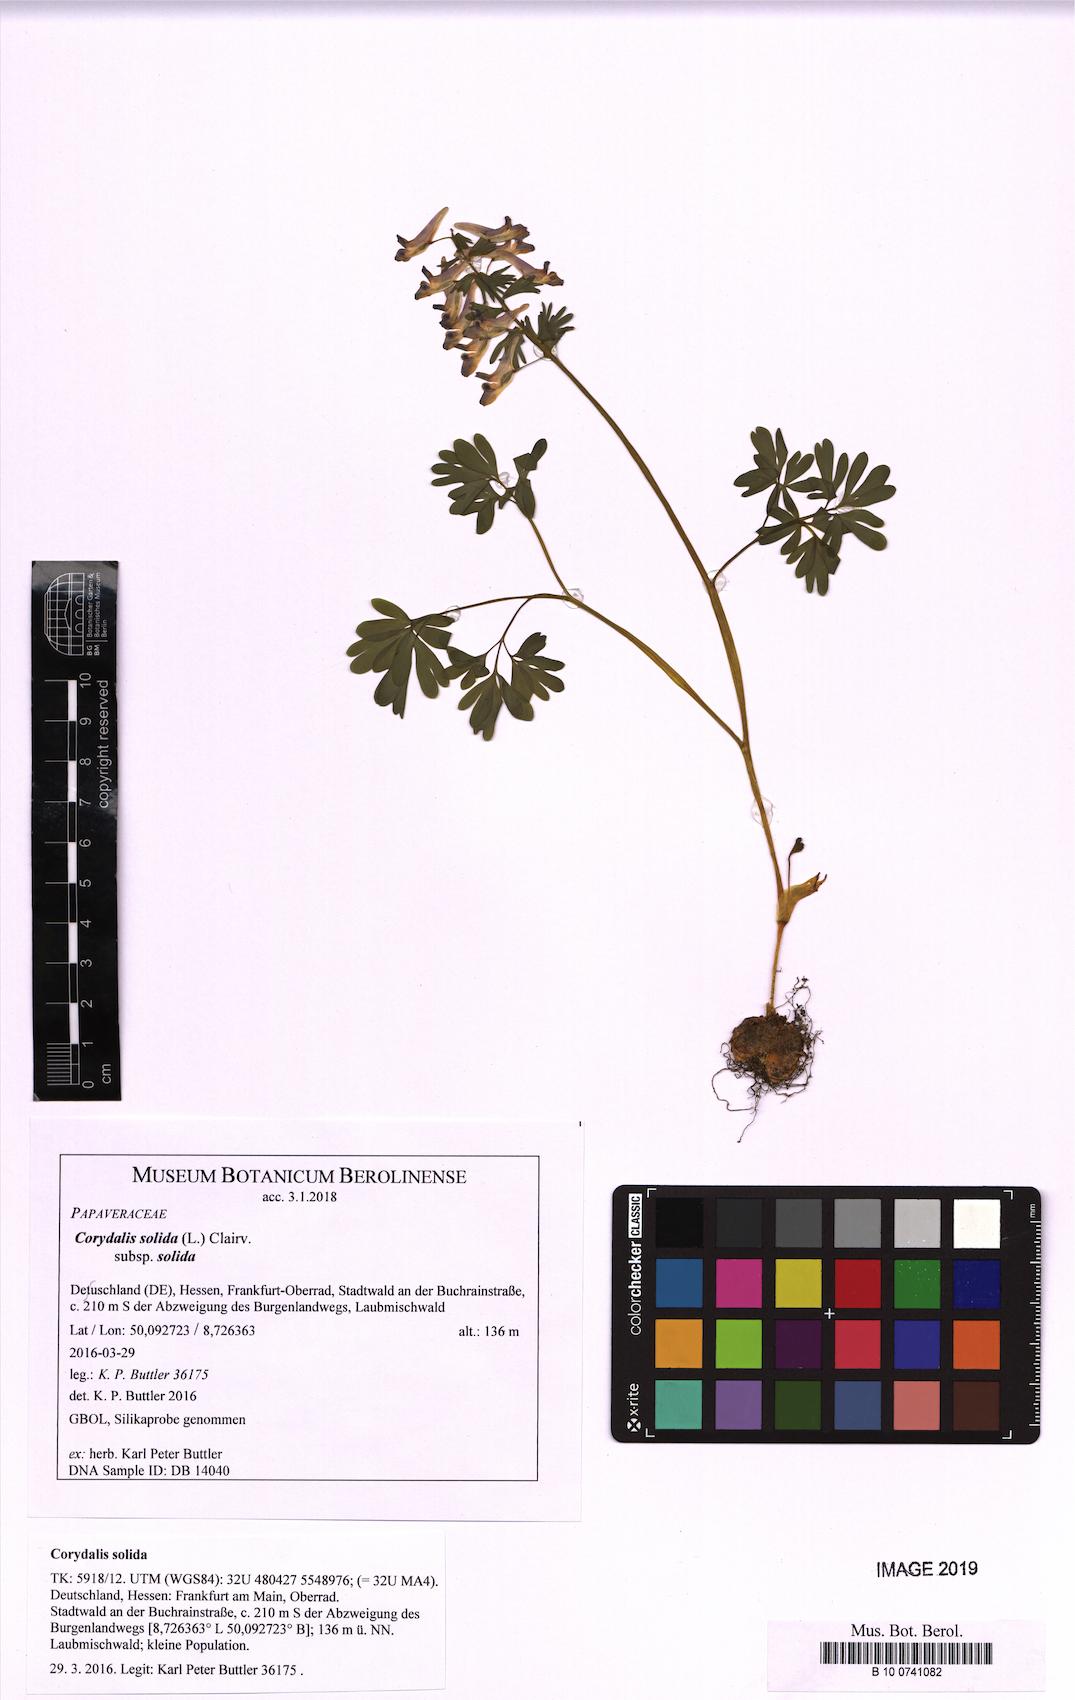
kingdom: Plantae
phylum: Tracheophyta
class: Magnoliopsida
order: Ranunculales
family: Papaveraceae
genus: Corydalis
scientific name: Corydalis solida
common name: Bird-in-a-bush
